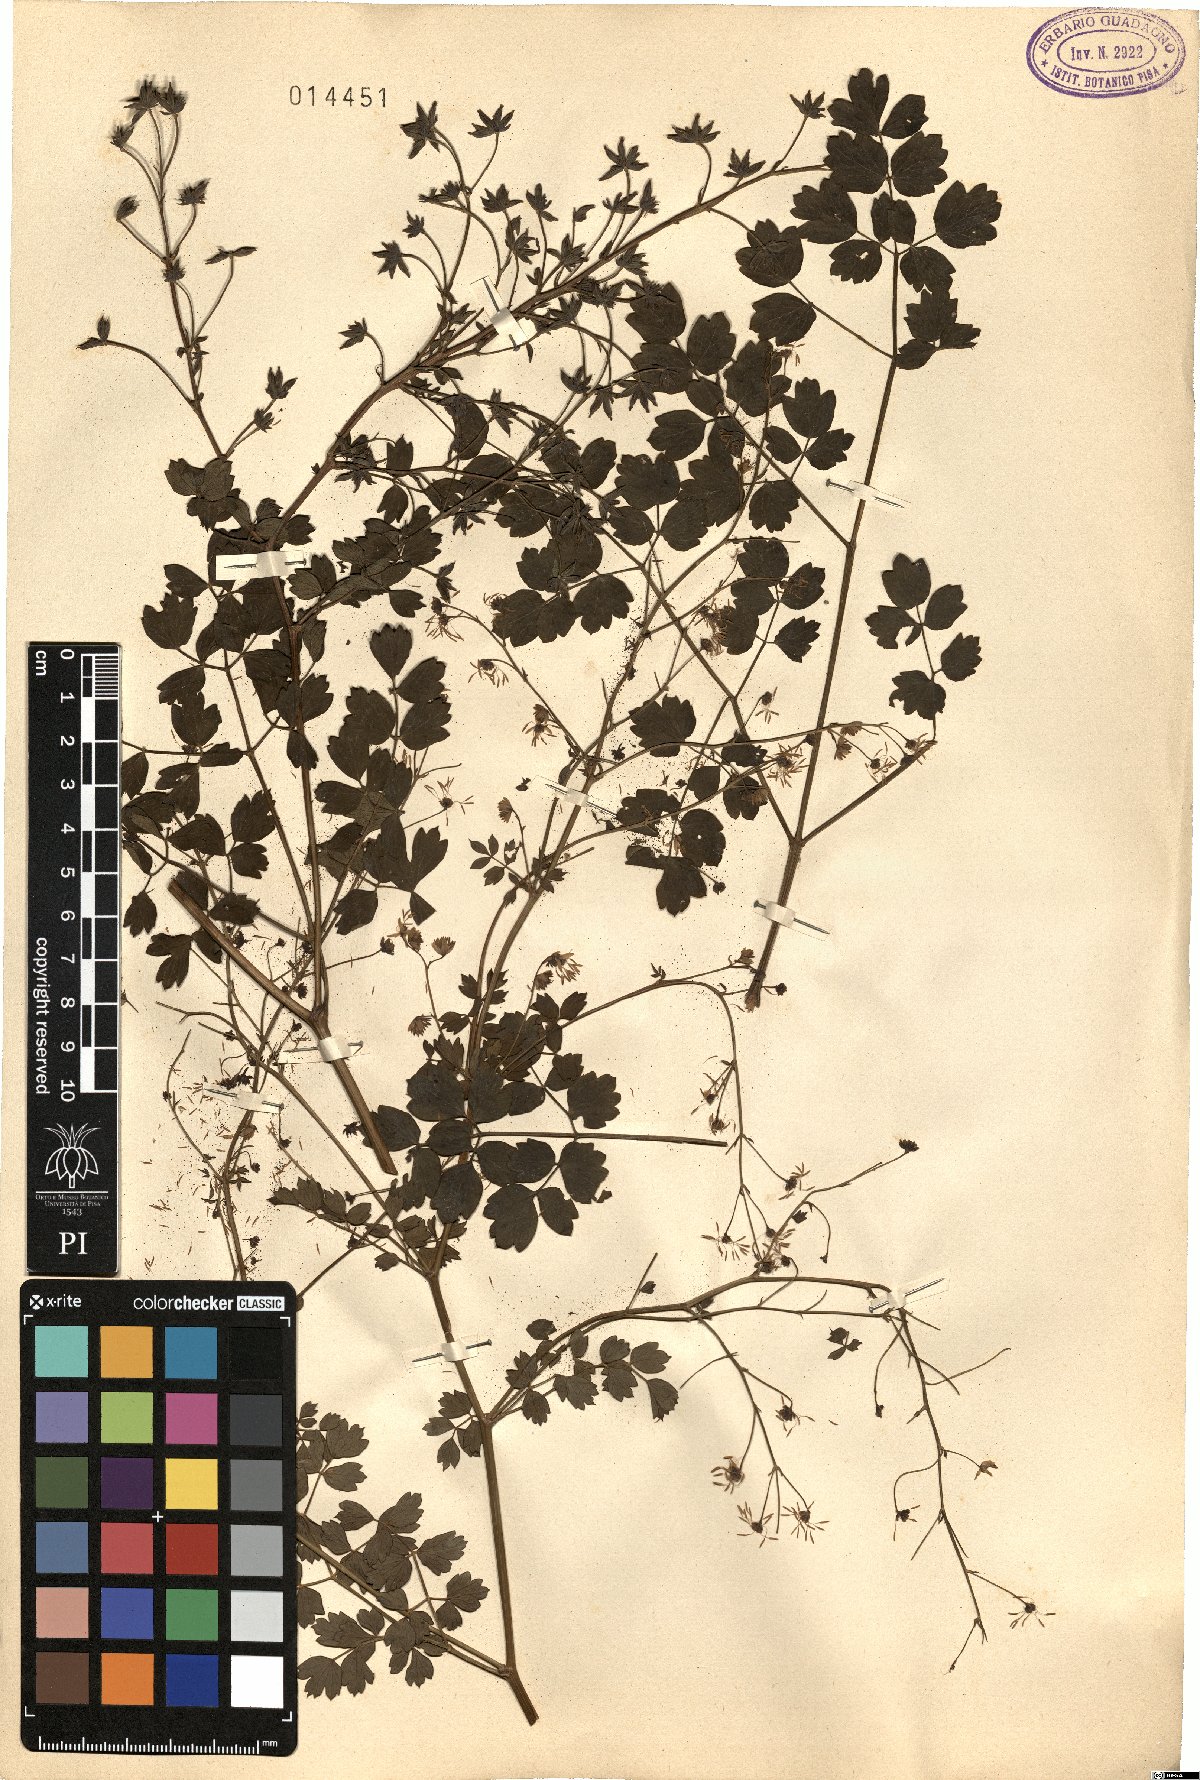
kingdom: Plantae
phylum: Tracheophyta
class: Magnoliopsida
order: Ranunculales
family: Ranunculaceae
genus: Thalictrum
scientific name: Thalictrum
